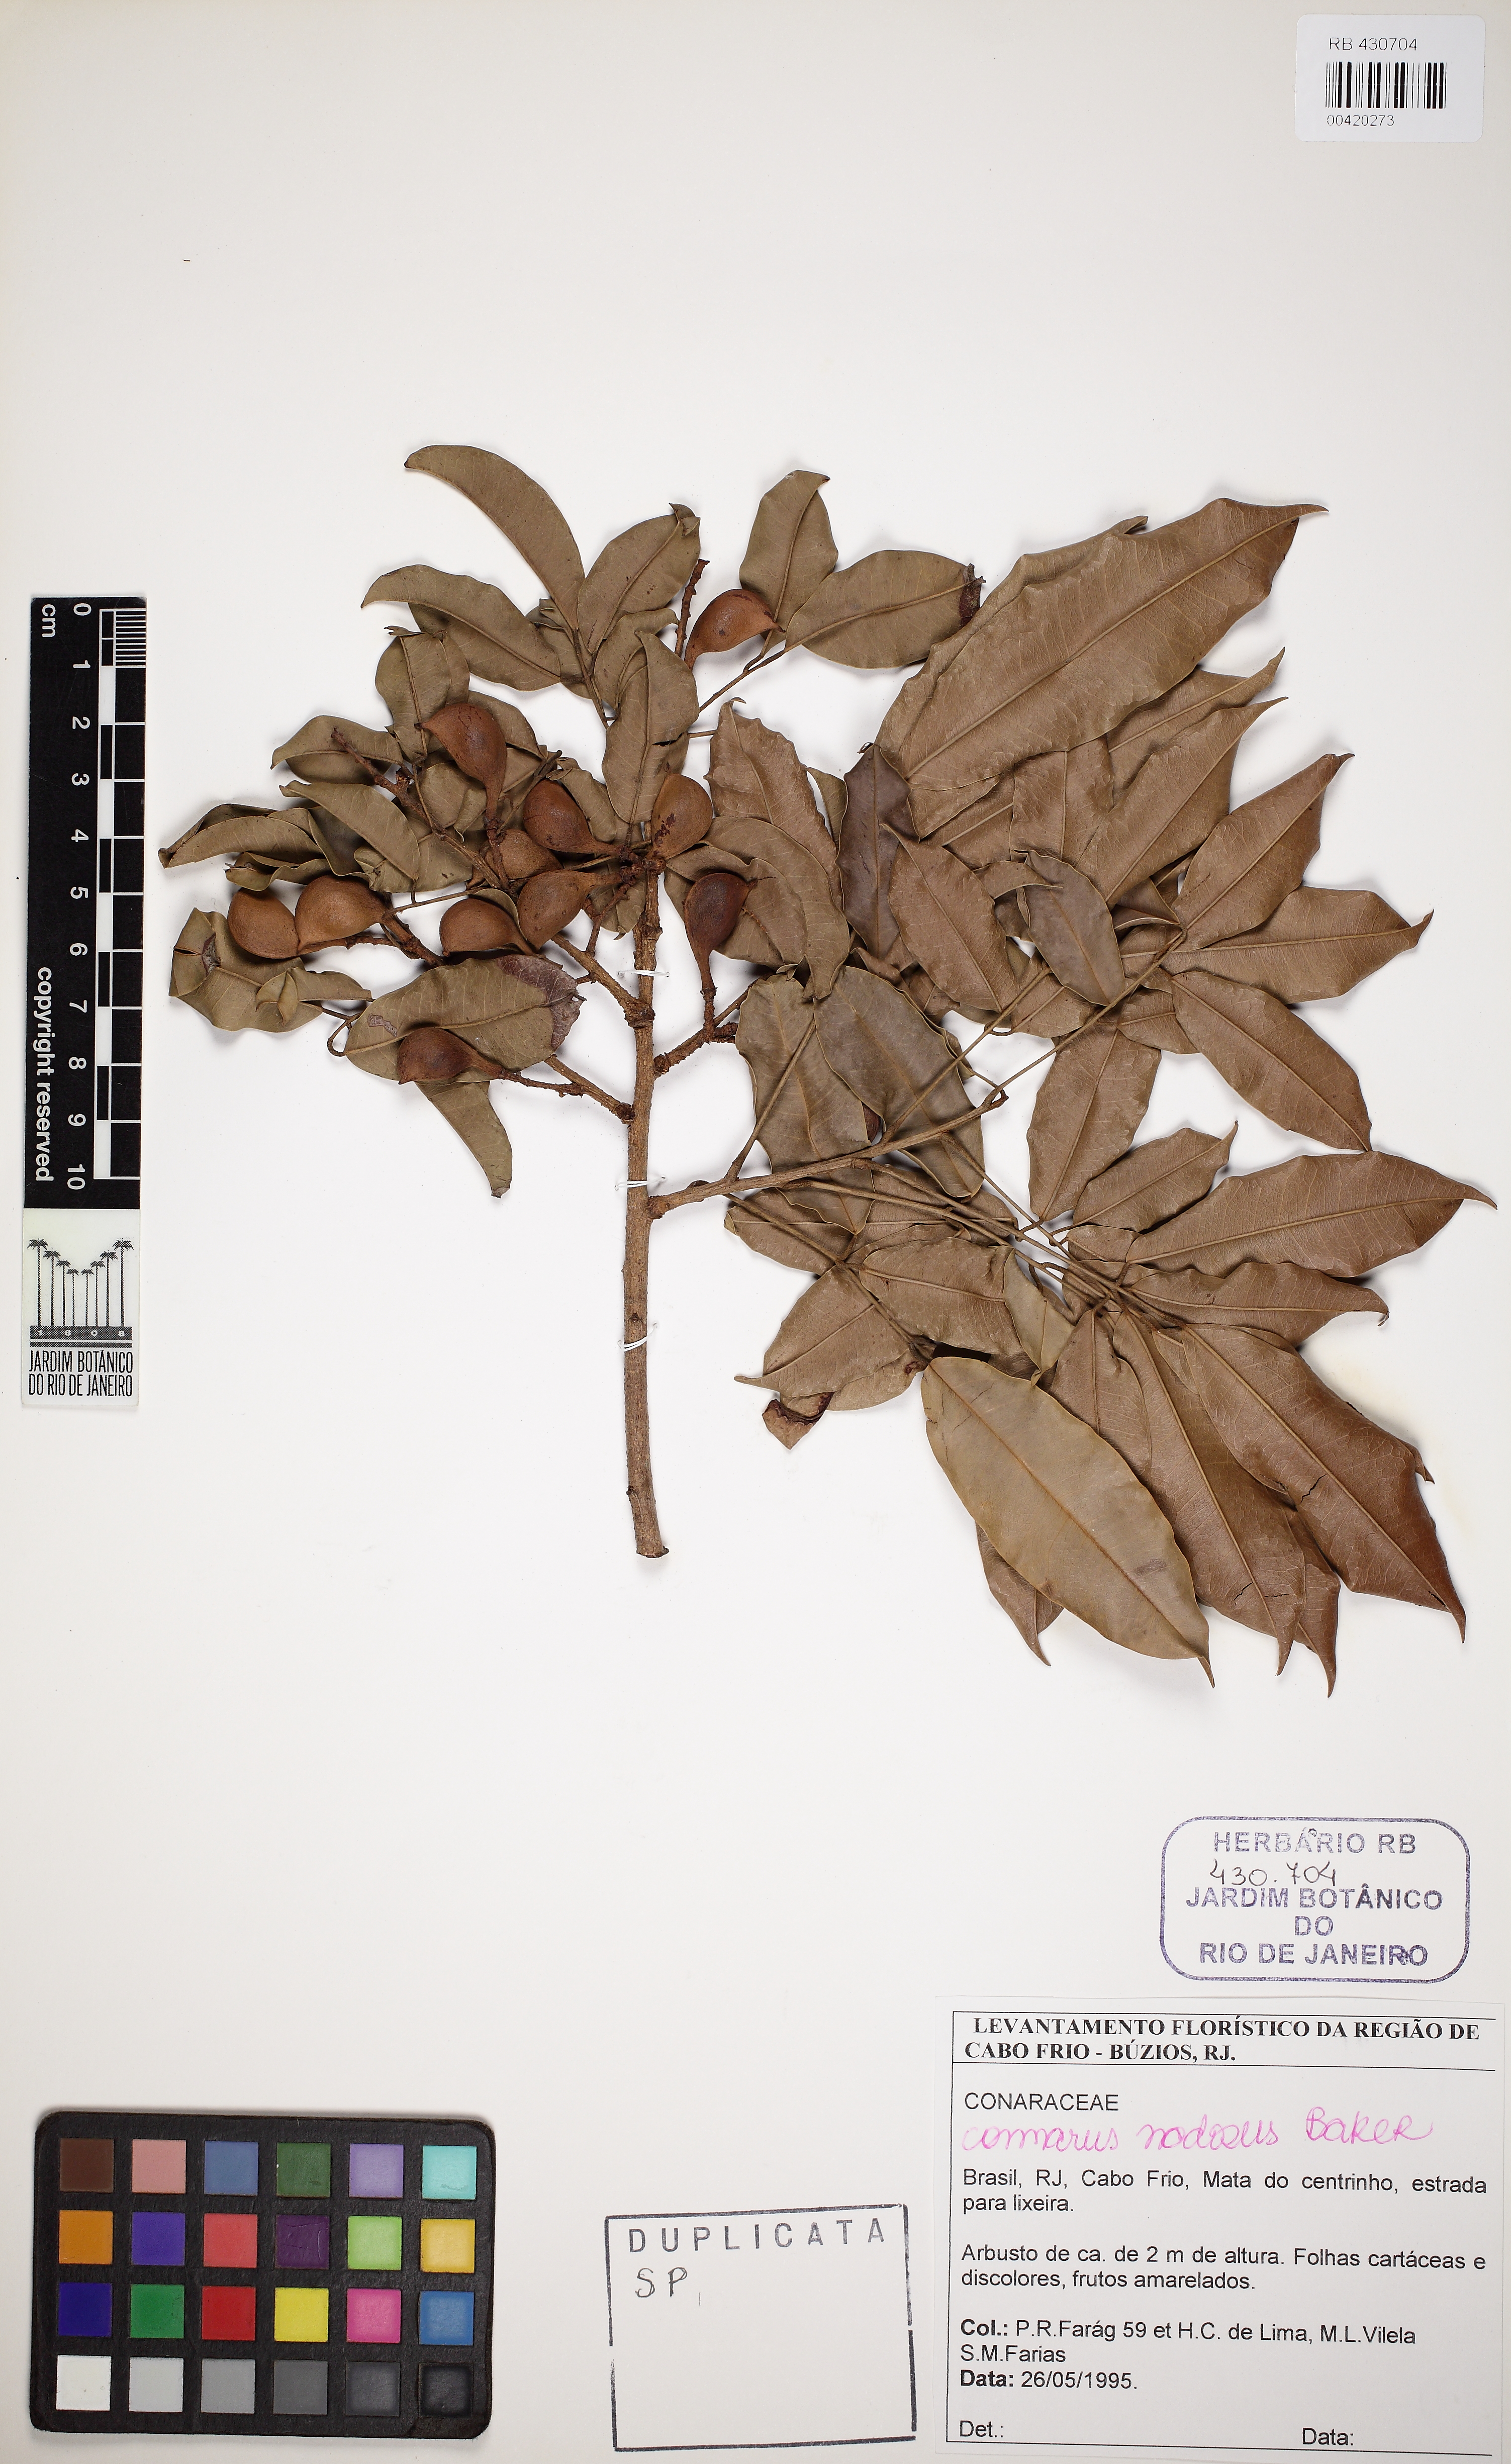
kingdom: Plantae
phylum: Tracheophyta
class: Magnoliopsida
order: Oxalidales
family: Connaraceae
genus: Connarus
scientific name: Connarus nodosus
